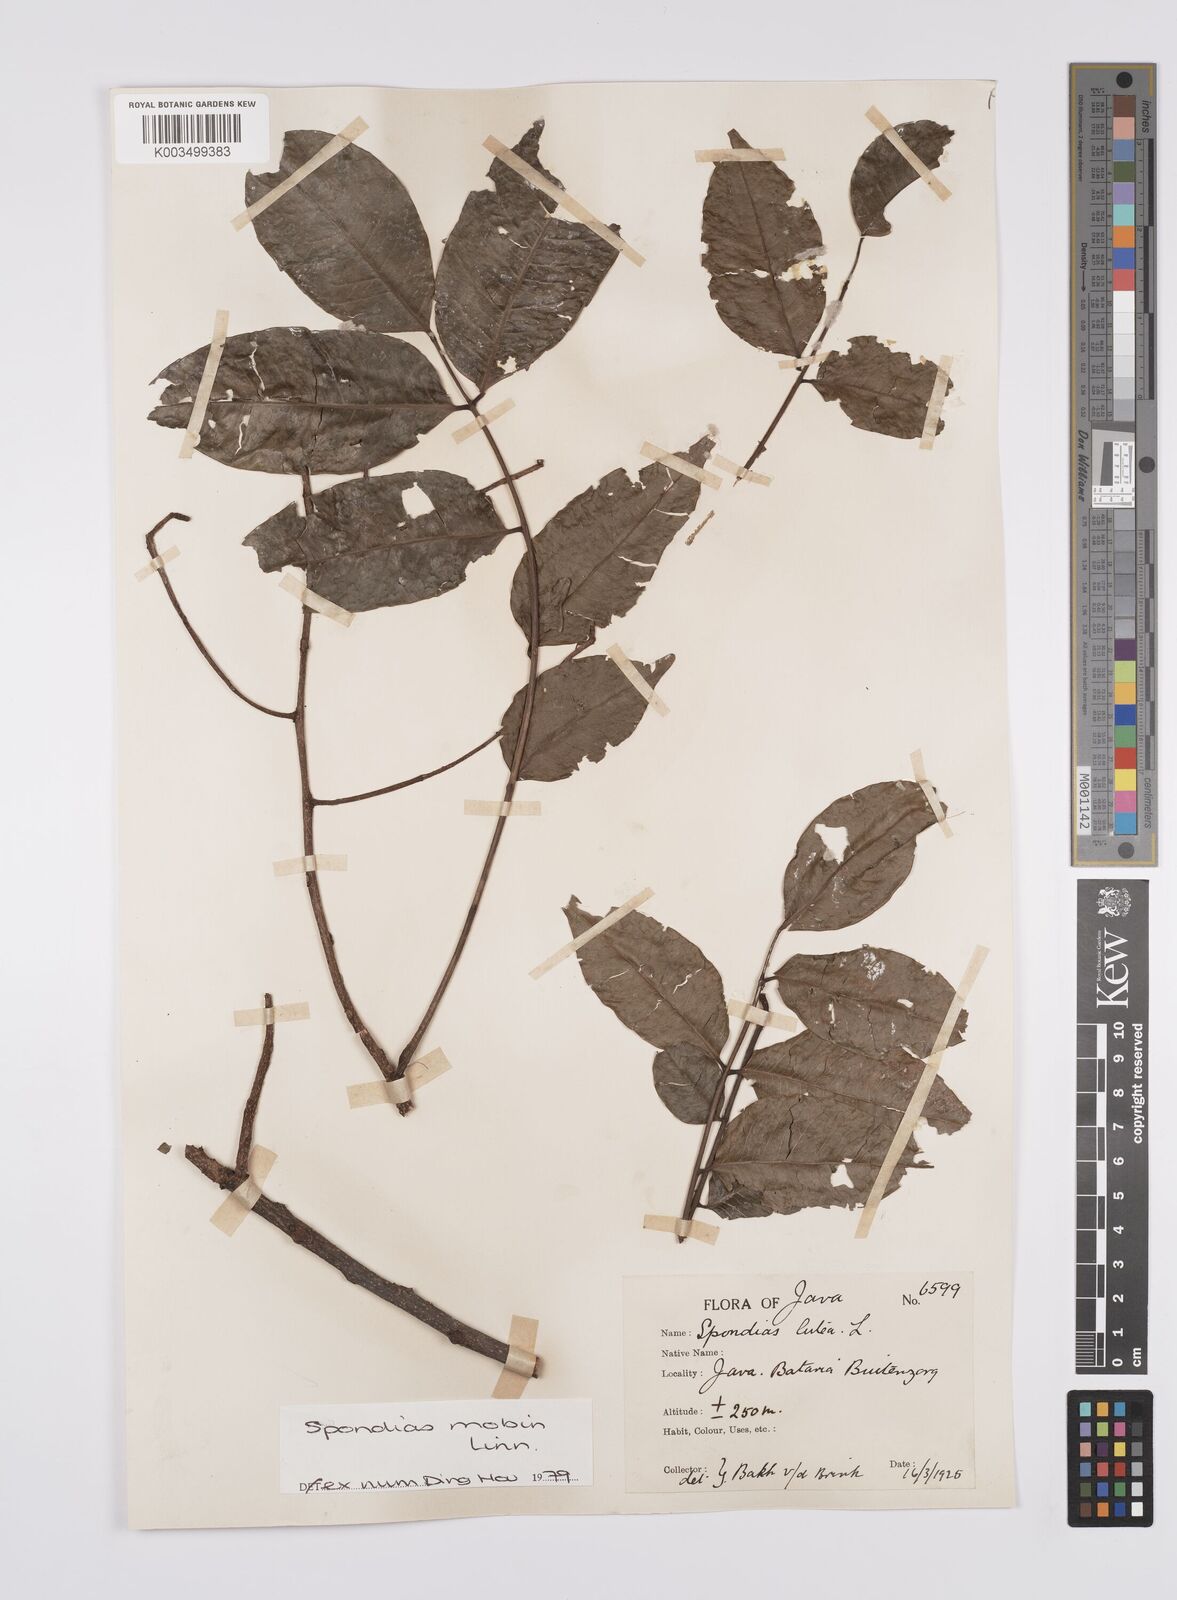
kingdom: Plantae
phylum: Tracheophyta
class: Magnoliopsida
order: Sapindales
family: Anacardiaceae
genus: Spondias
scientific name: Spondias mombin
